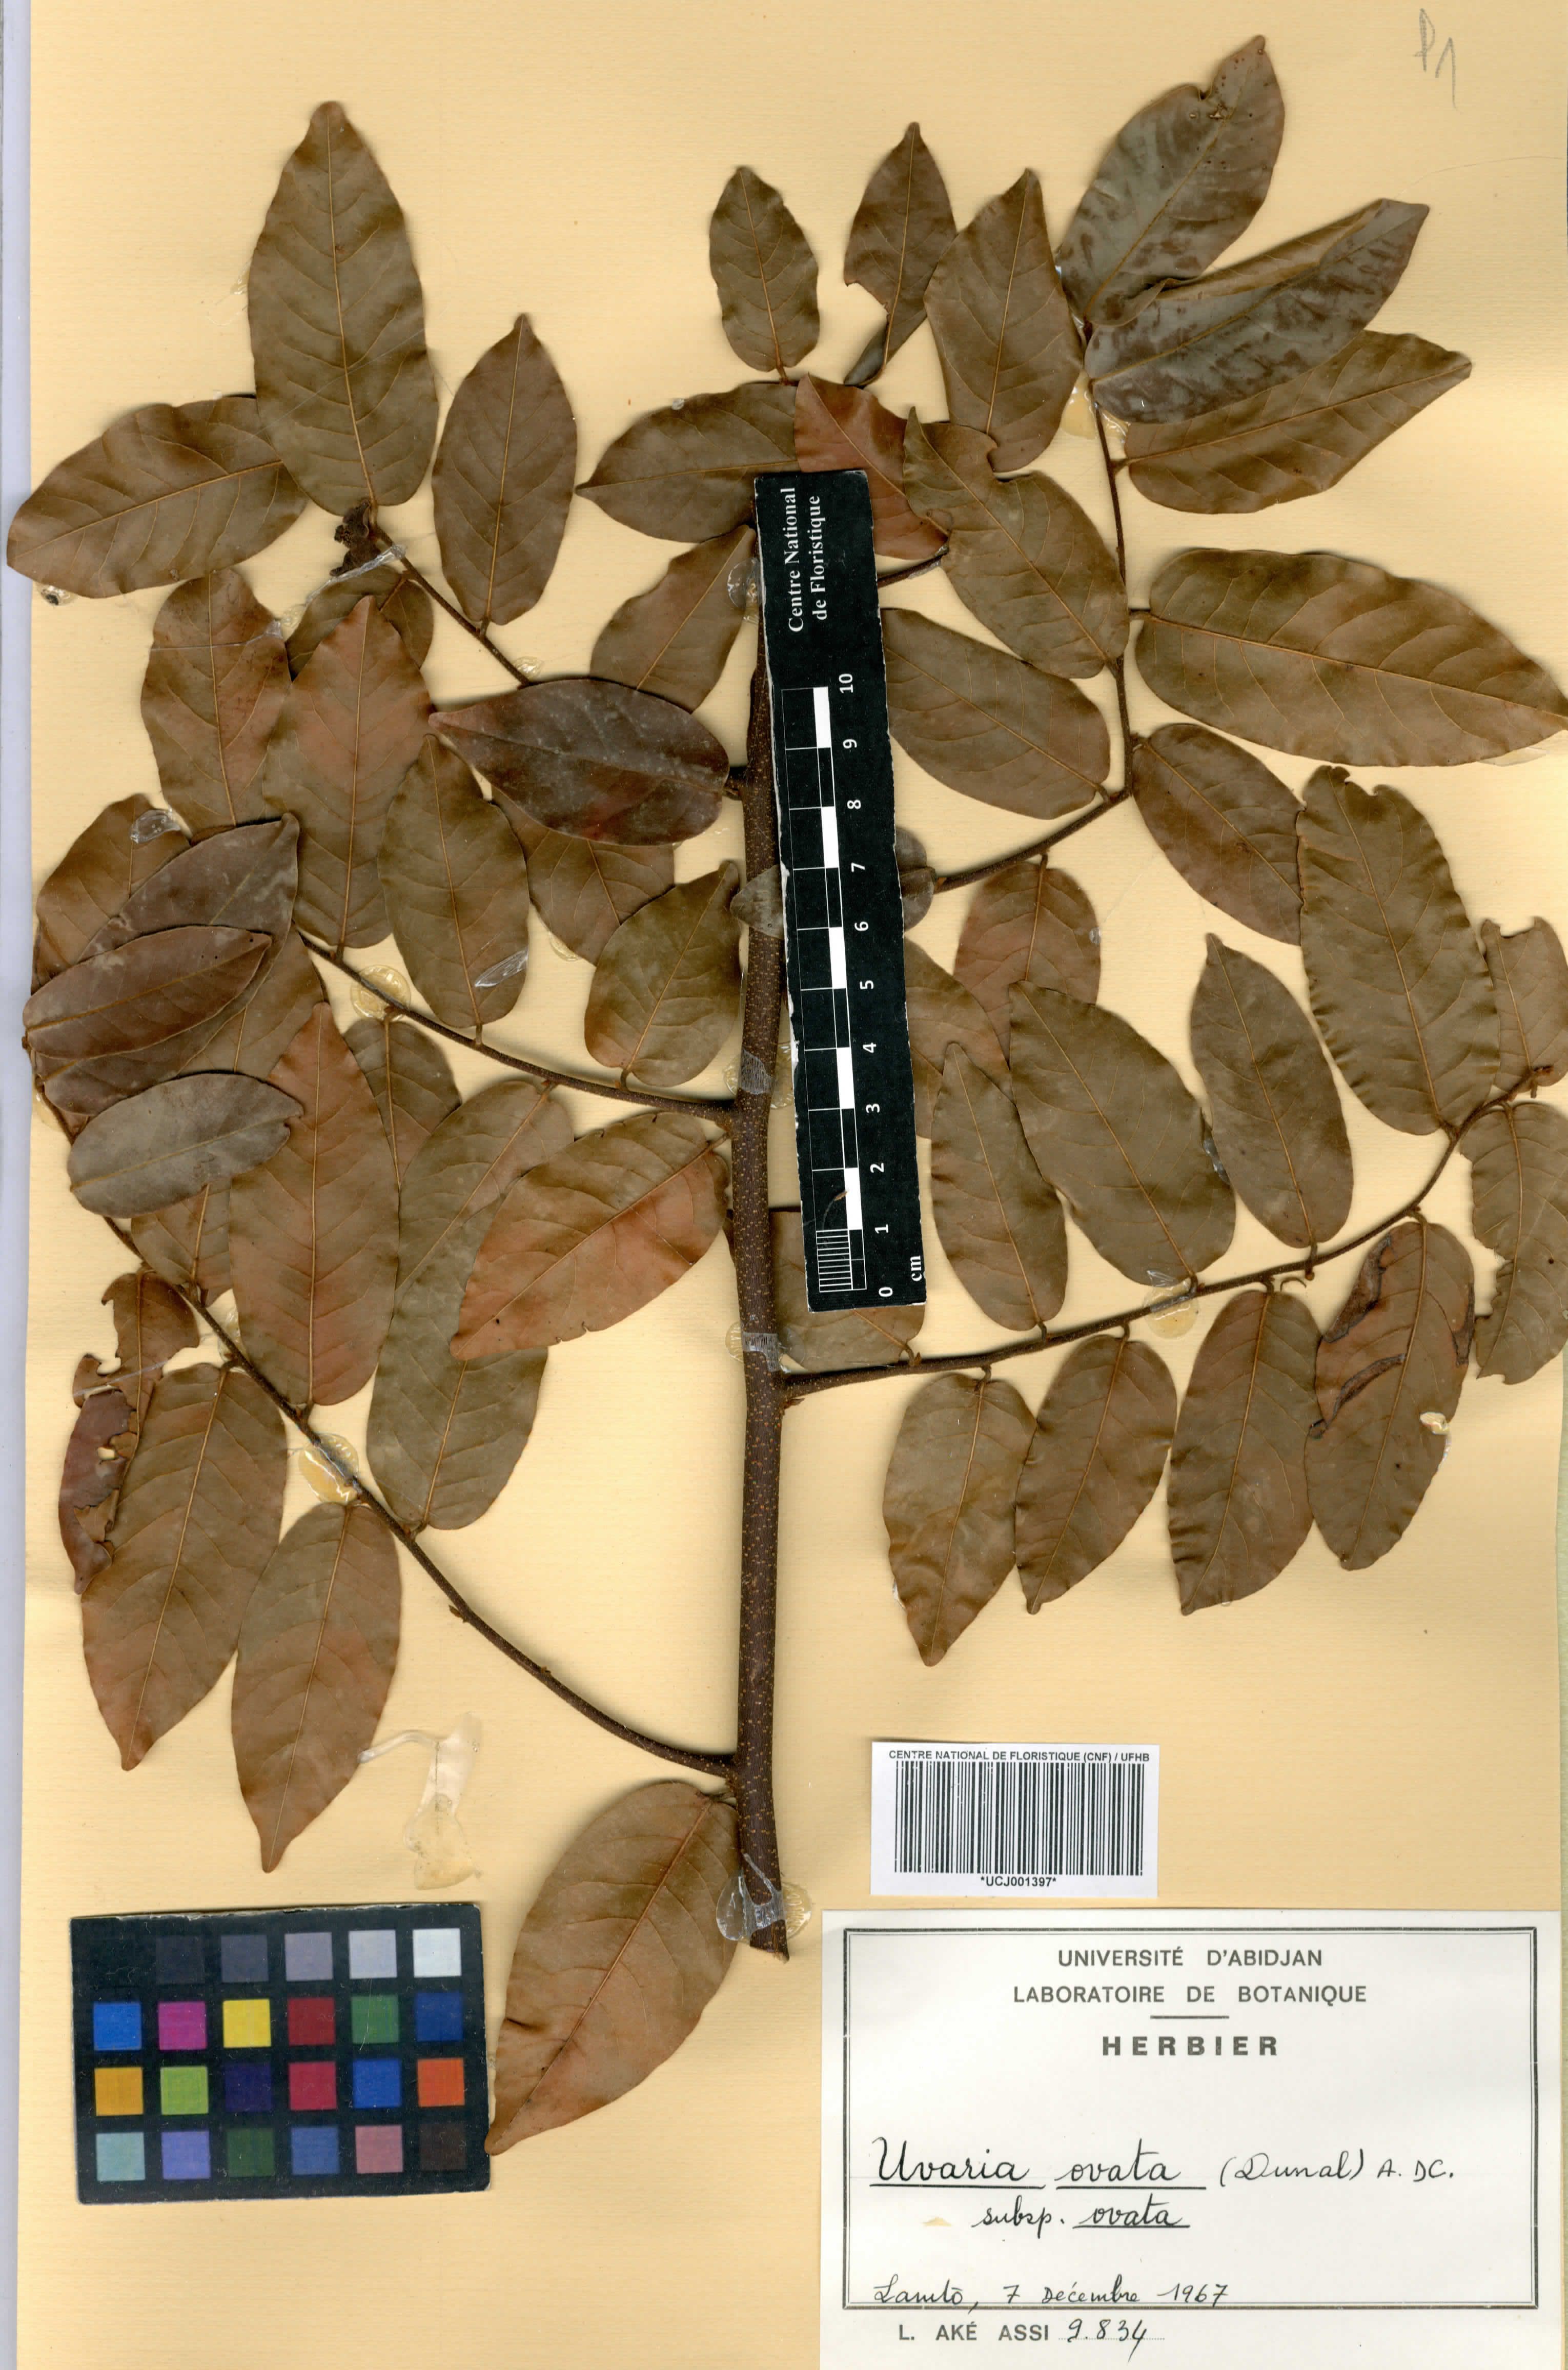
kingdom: Plantae
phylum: Tracheophyta
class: Magnoliopsida
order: Magnoliales
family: Annonaceae
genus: Uvaria
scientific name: Uvaria ovata
